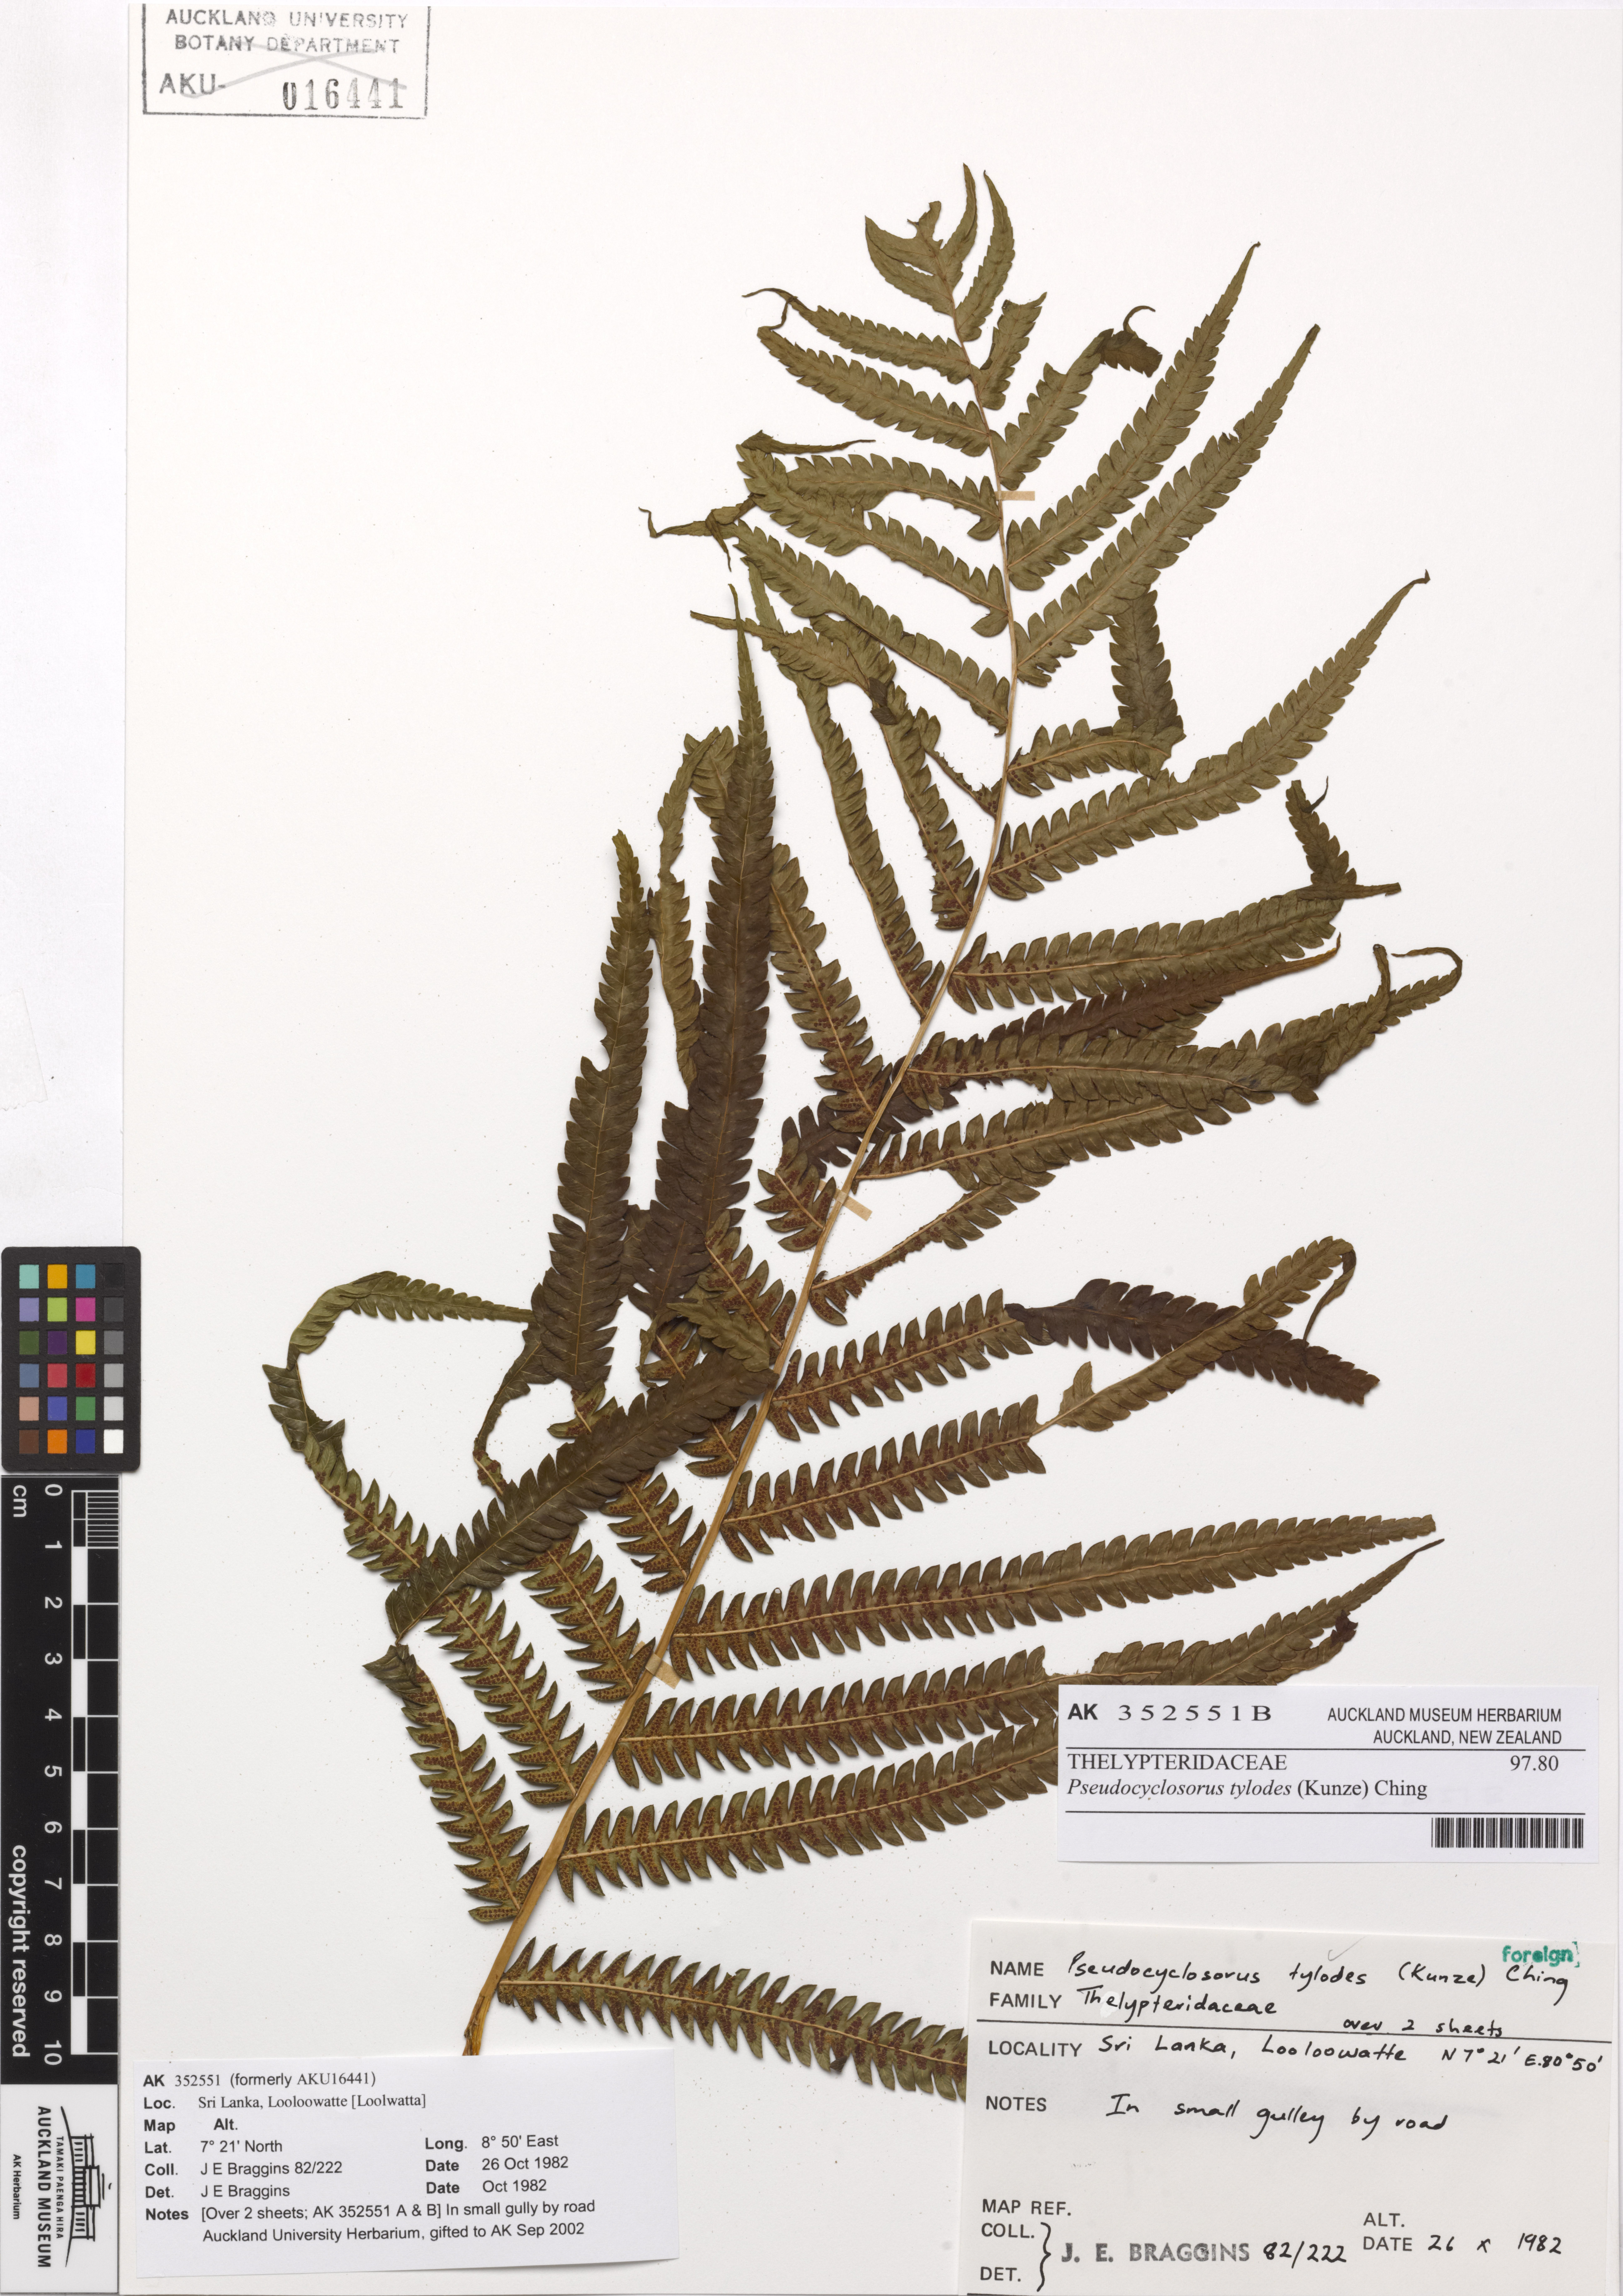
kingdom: Plantae
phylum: Tracheophyta
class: Polypodiopsida
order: Polypodiales
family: Thelypteridaceae
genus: Pseudocyclosorus
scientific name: Pseudocyclosorus tylodes
